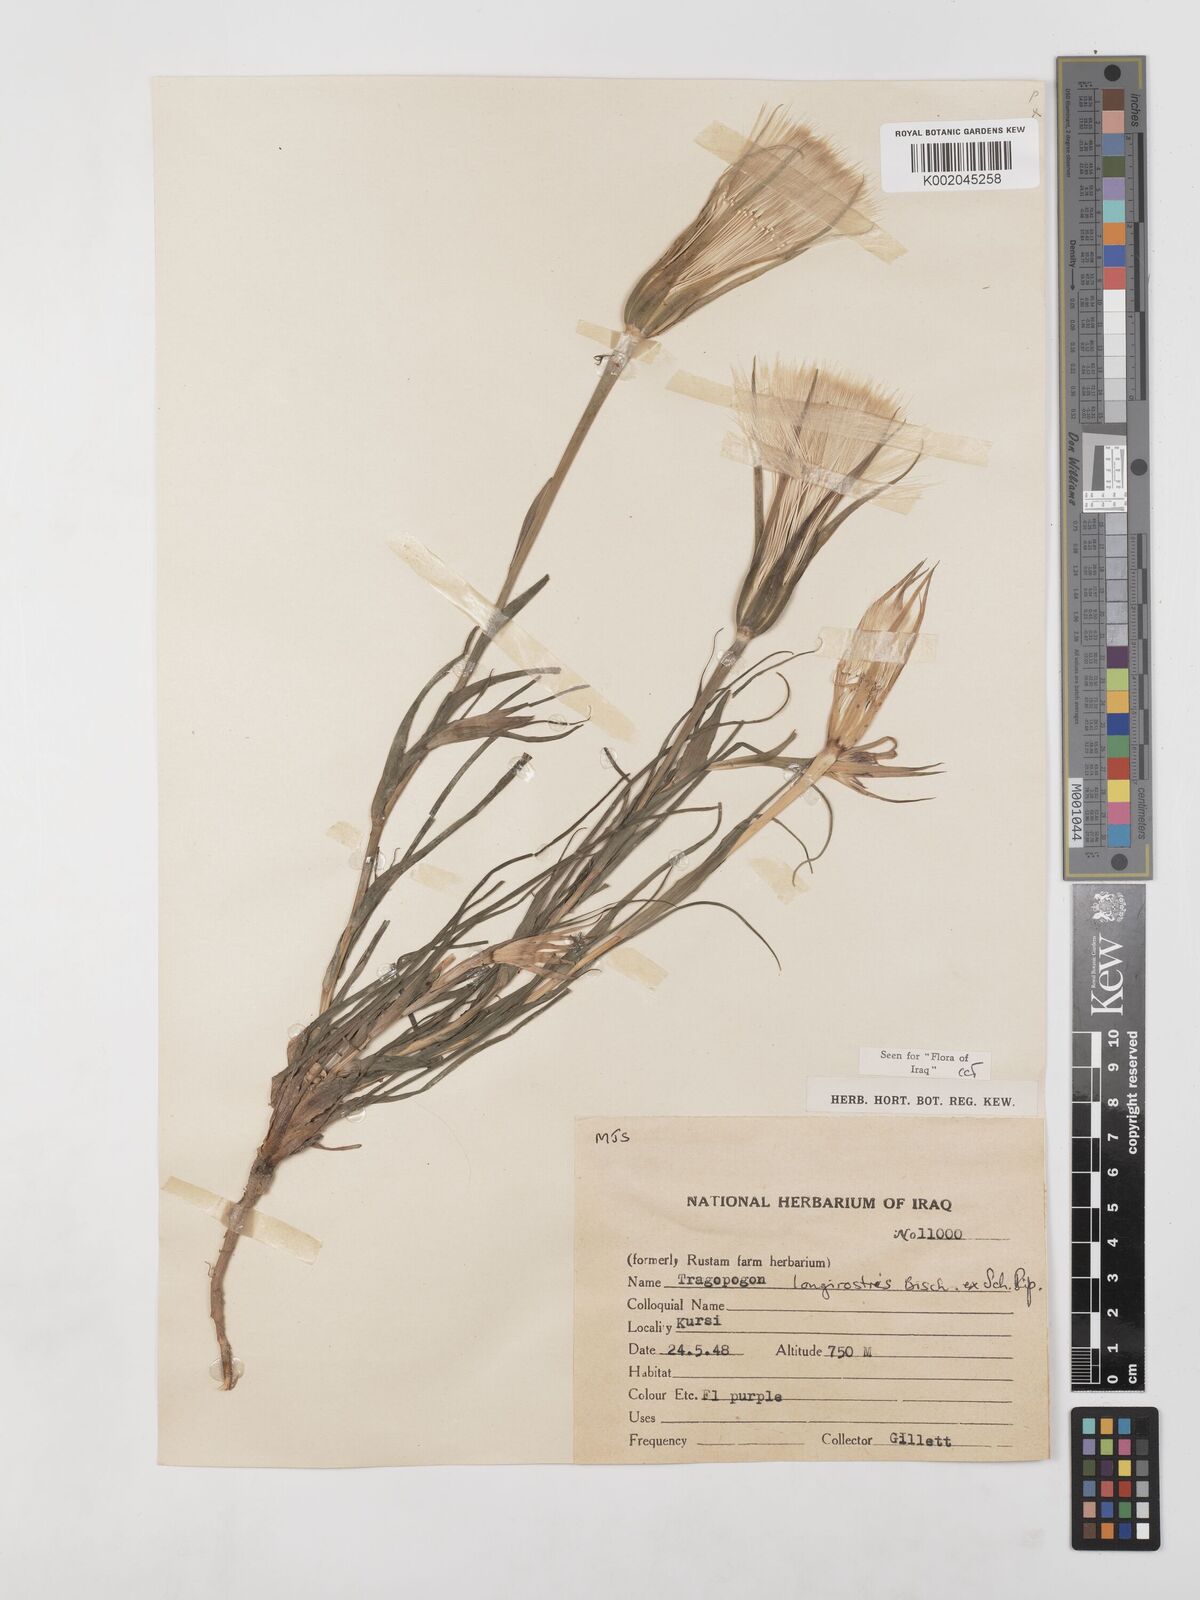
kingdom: Plantae
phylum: Tracheophyta
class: Magnoliopsida
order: Asterales
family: Asteraceae
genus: Tragopogon
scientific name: Tragopogon coelesyriacus
